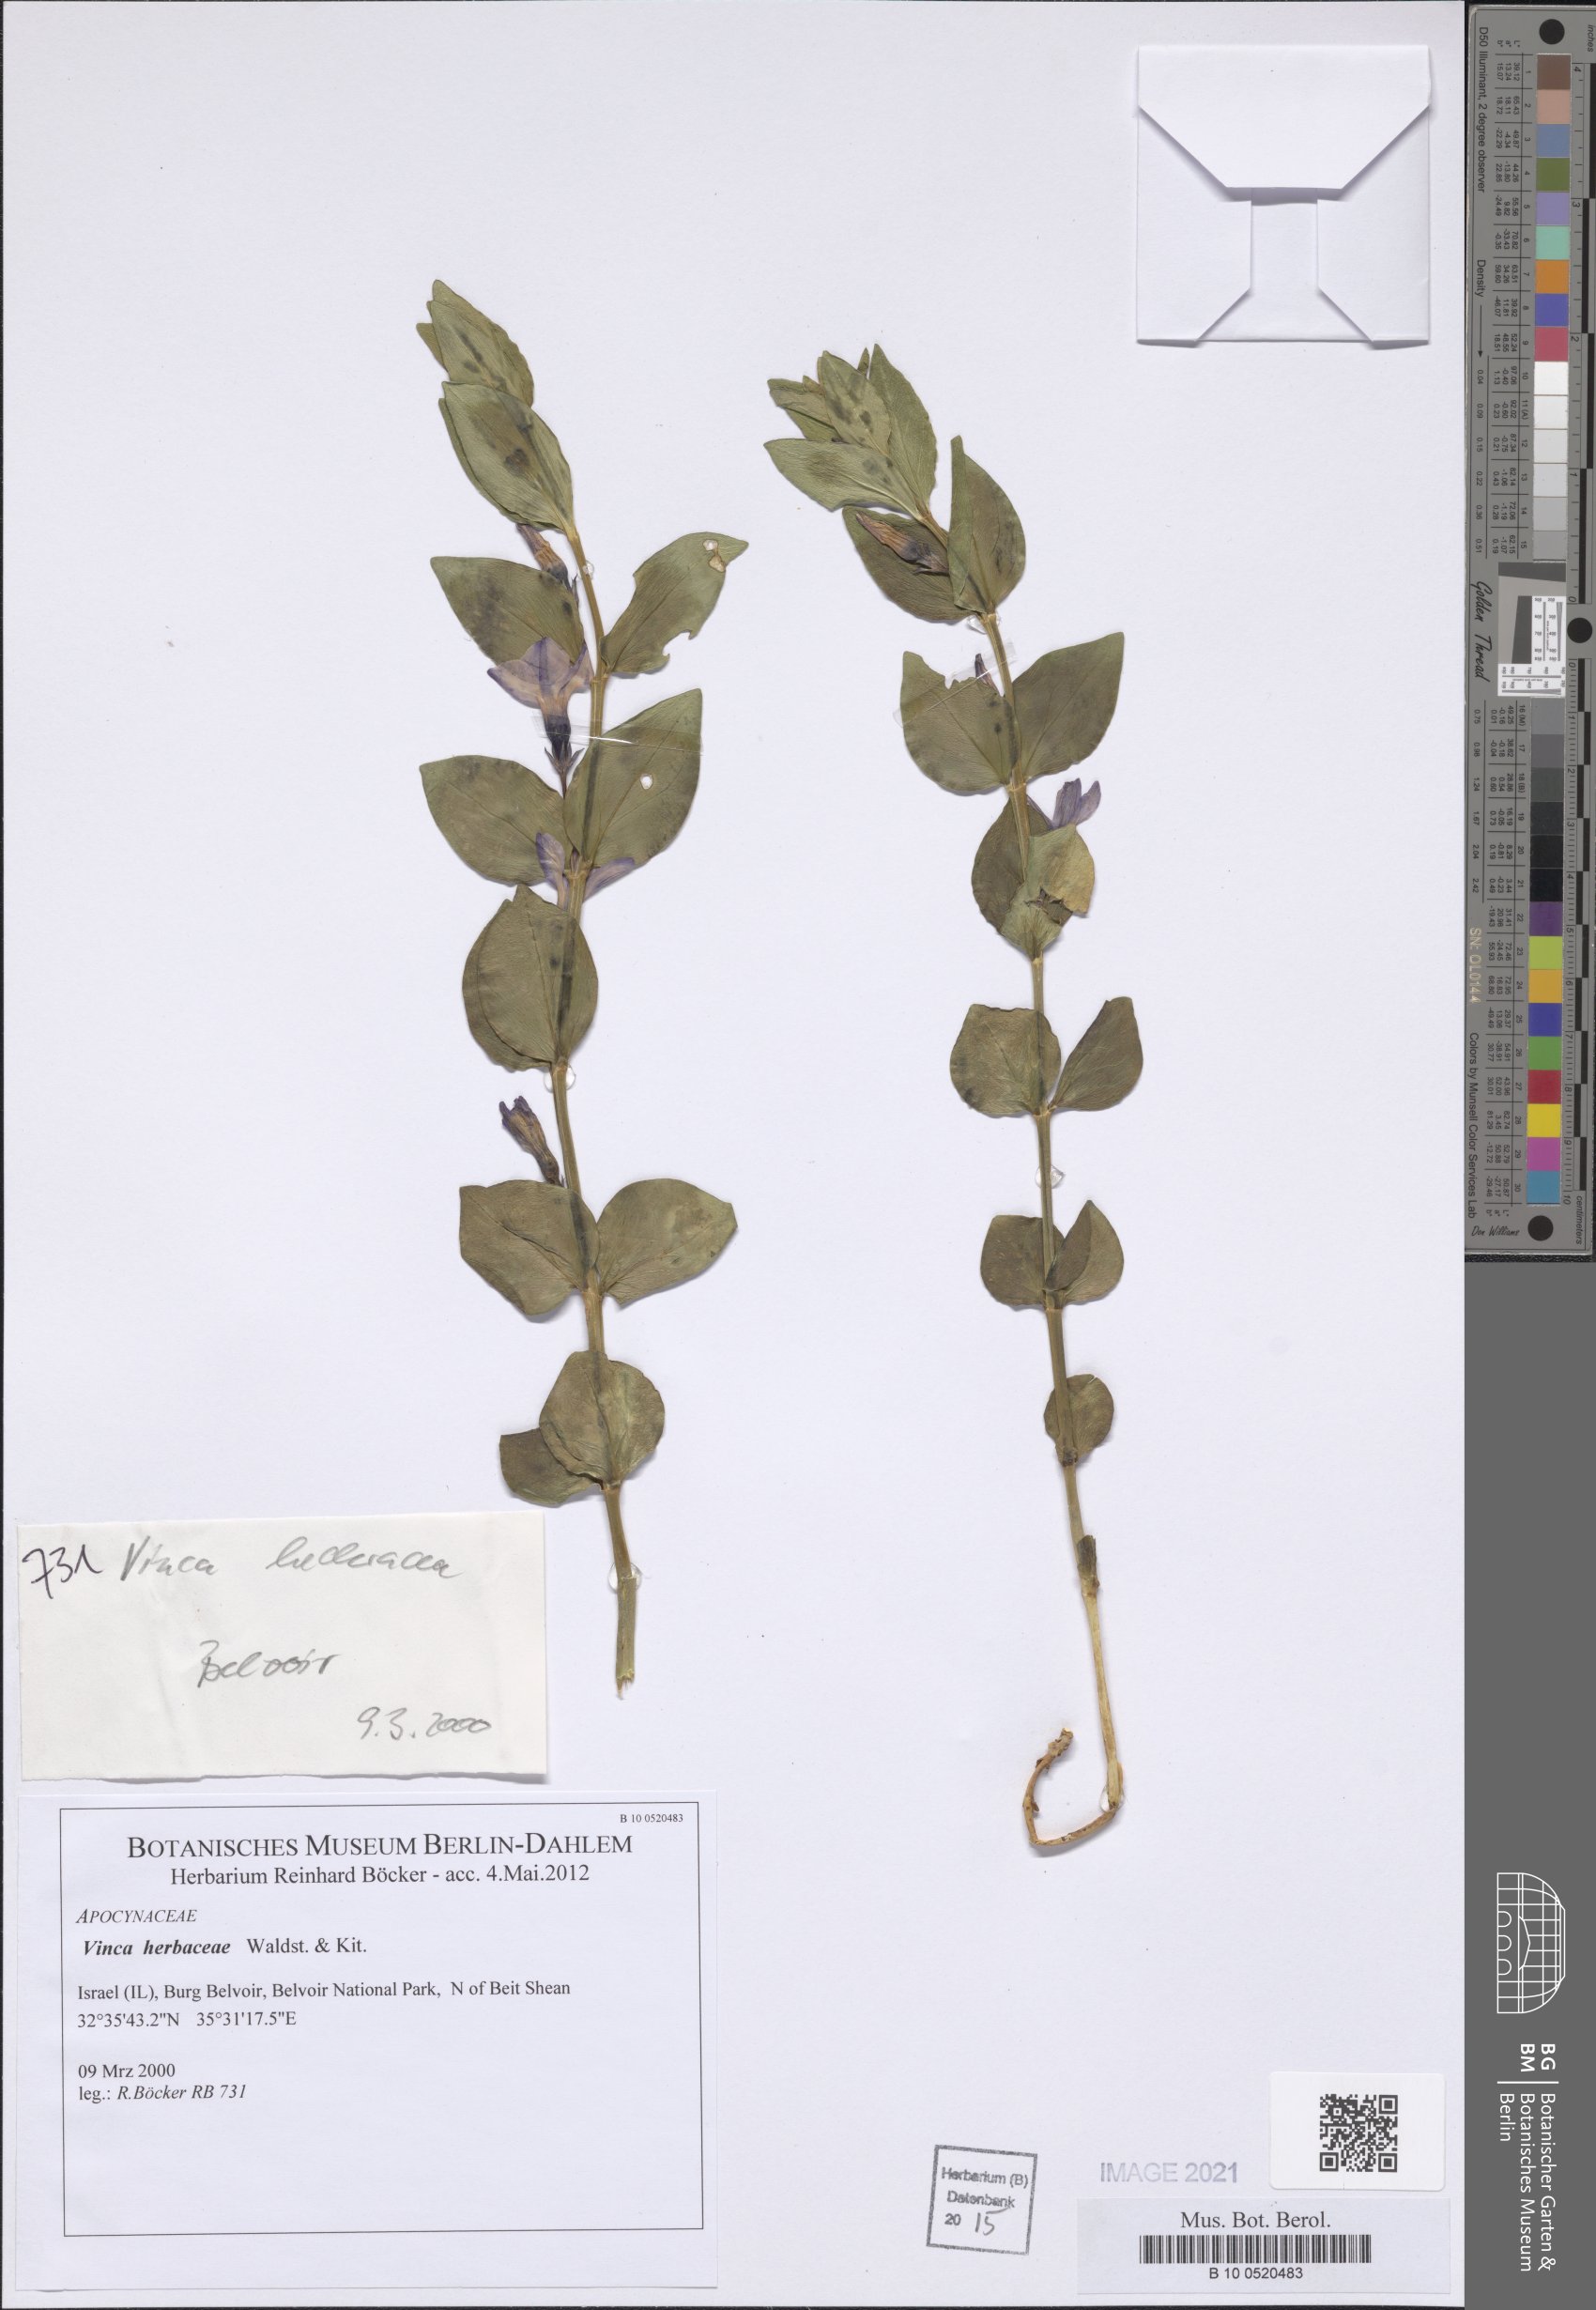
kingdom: Plantae
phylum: Tracheophyta
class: Magnoliopsida
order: Gentianales
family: Apocynaceae
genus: Vinca
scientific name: Vinca herbacea
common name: Herbaceous periwinkle
